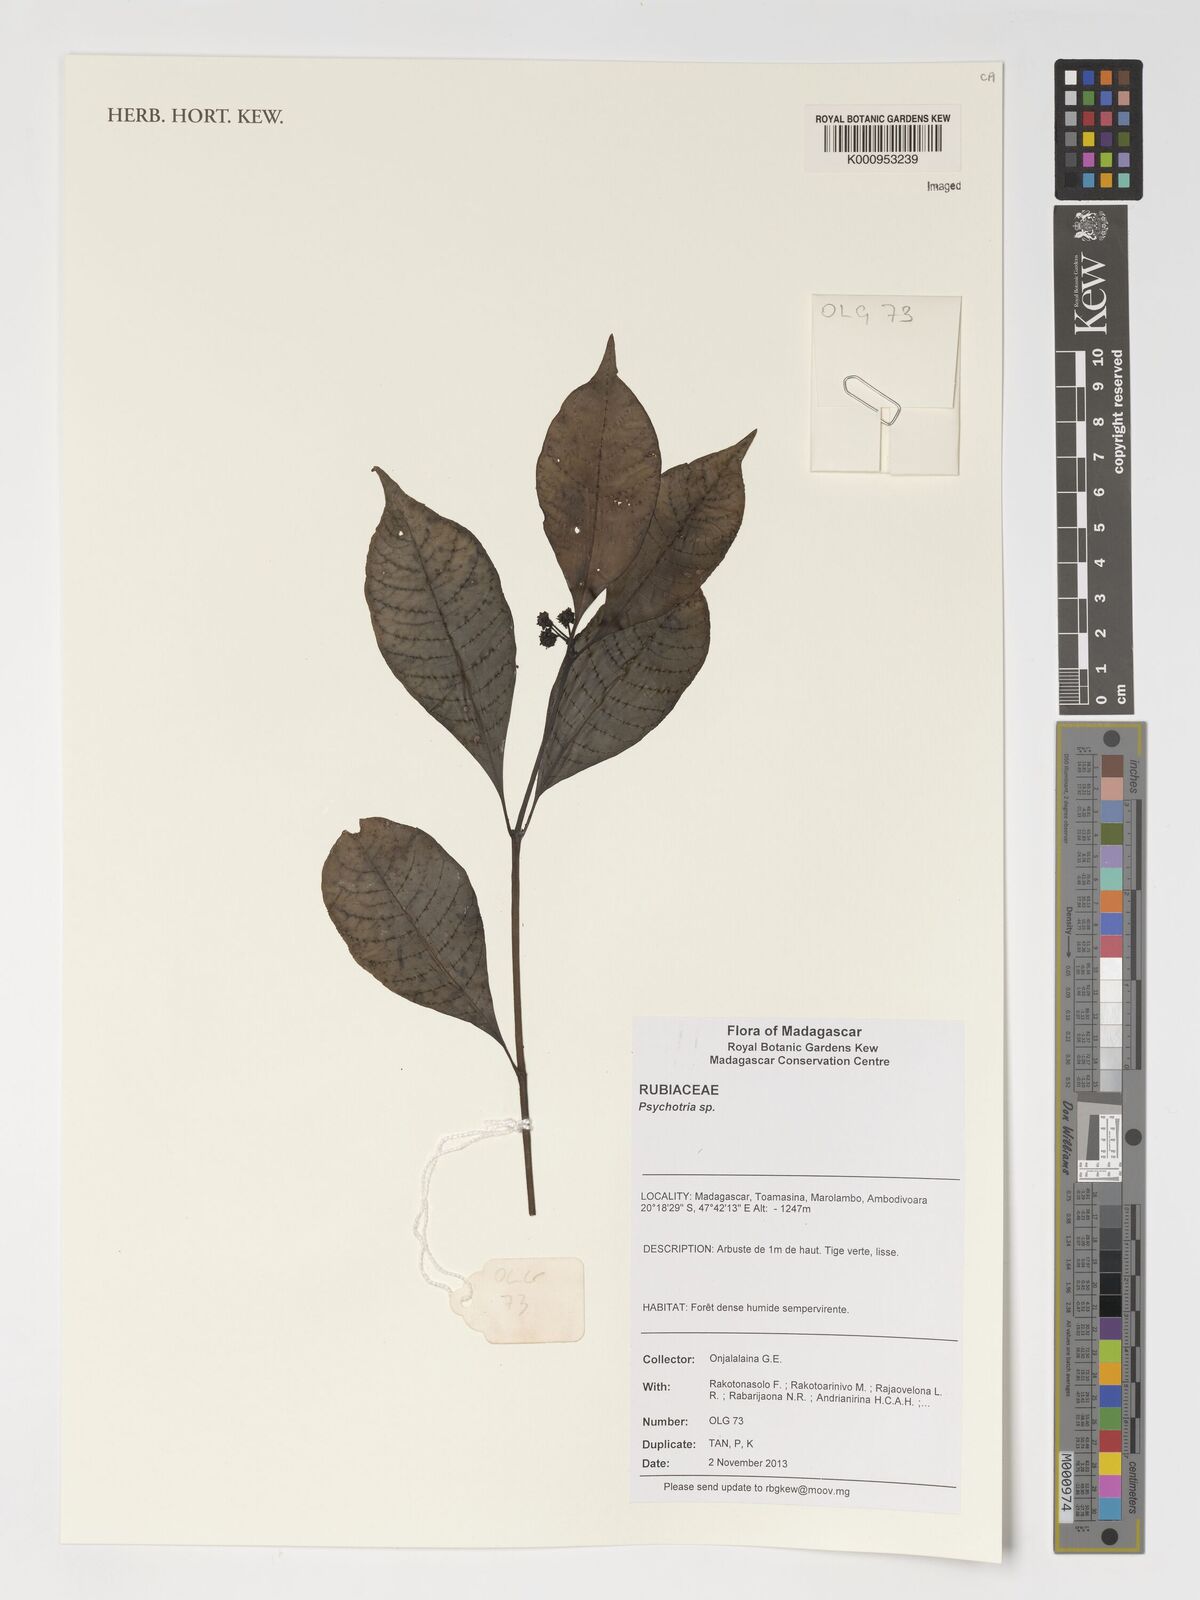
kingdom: Plantae
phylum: Tracheophyta
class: Magnoliopsida
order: Gentianales
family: Rubiaceae
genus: Psychotria
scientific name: Psychotria
